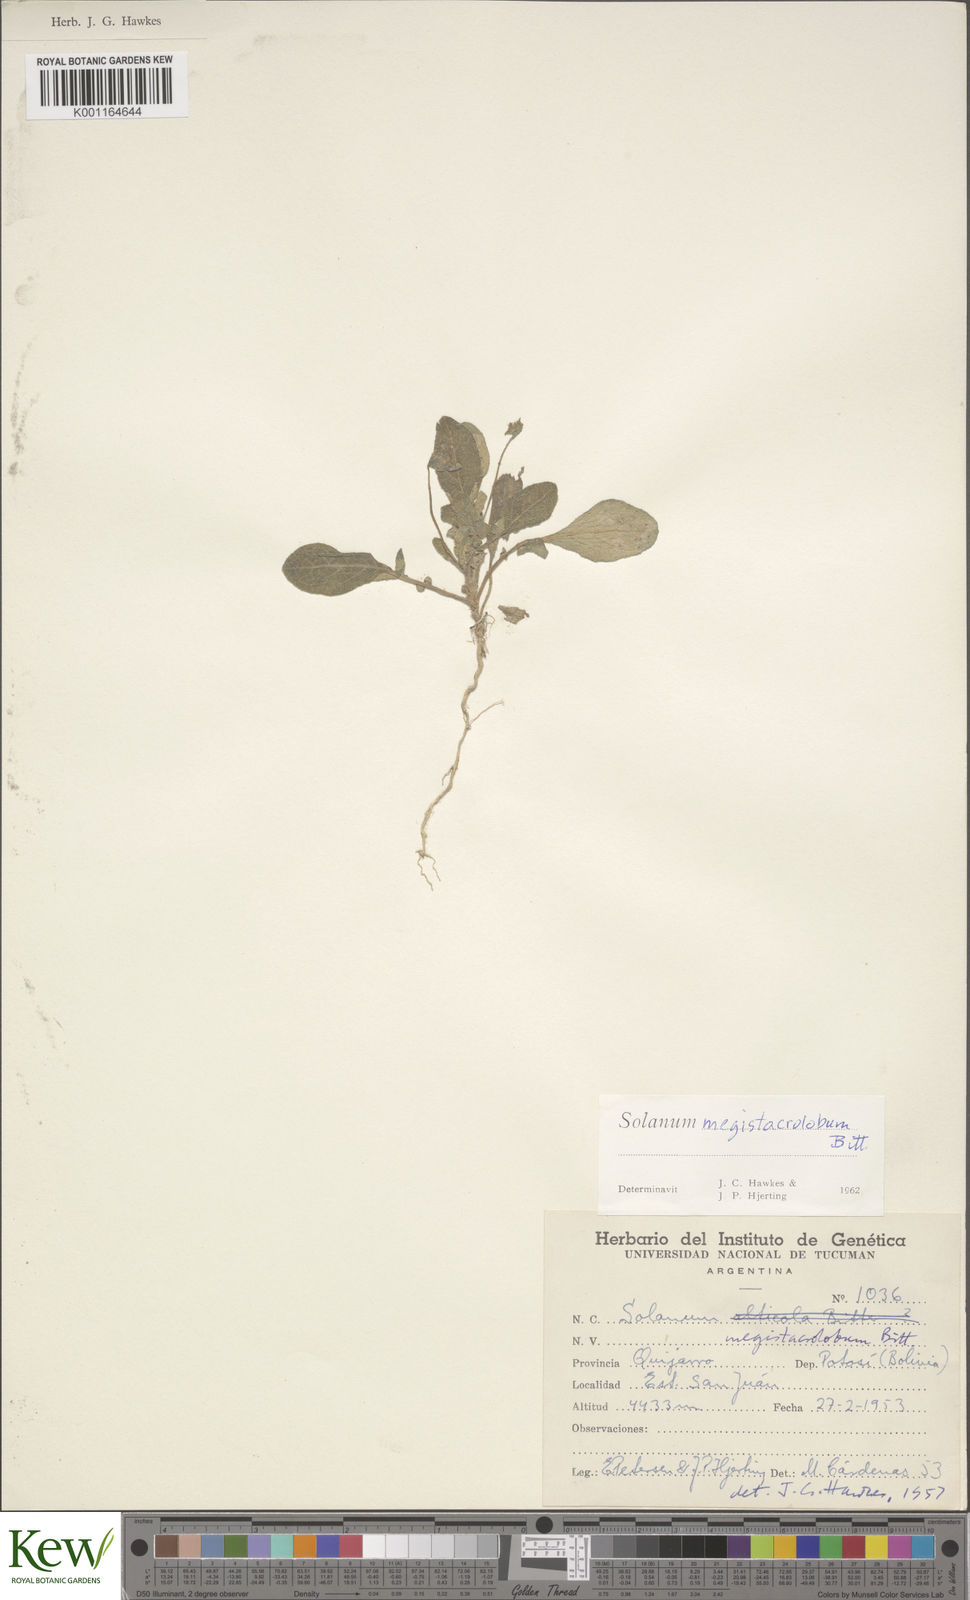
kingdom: Plantae
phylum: Tracheophyta
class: Magnoliopsida
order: Solanales
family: Solanaceae
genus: Solanum
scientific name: Solanum boliviense
